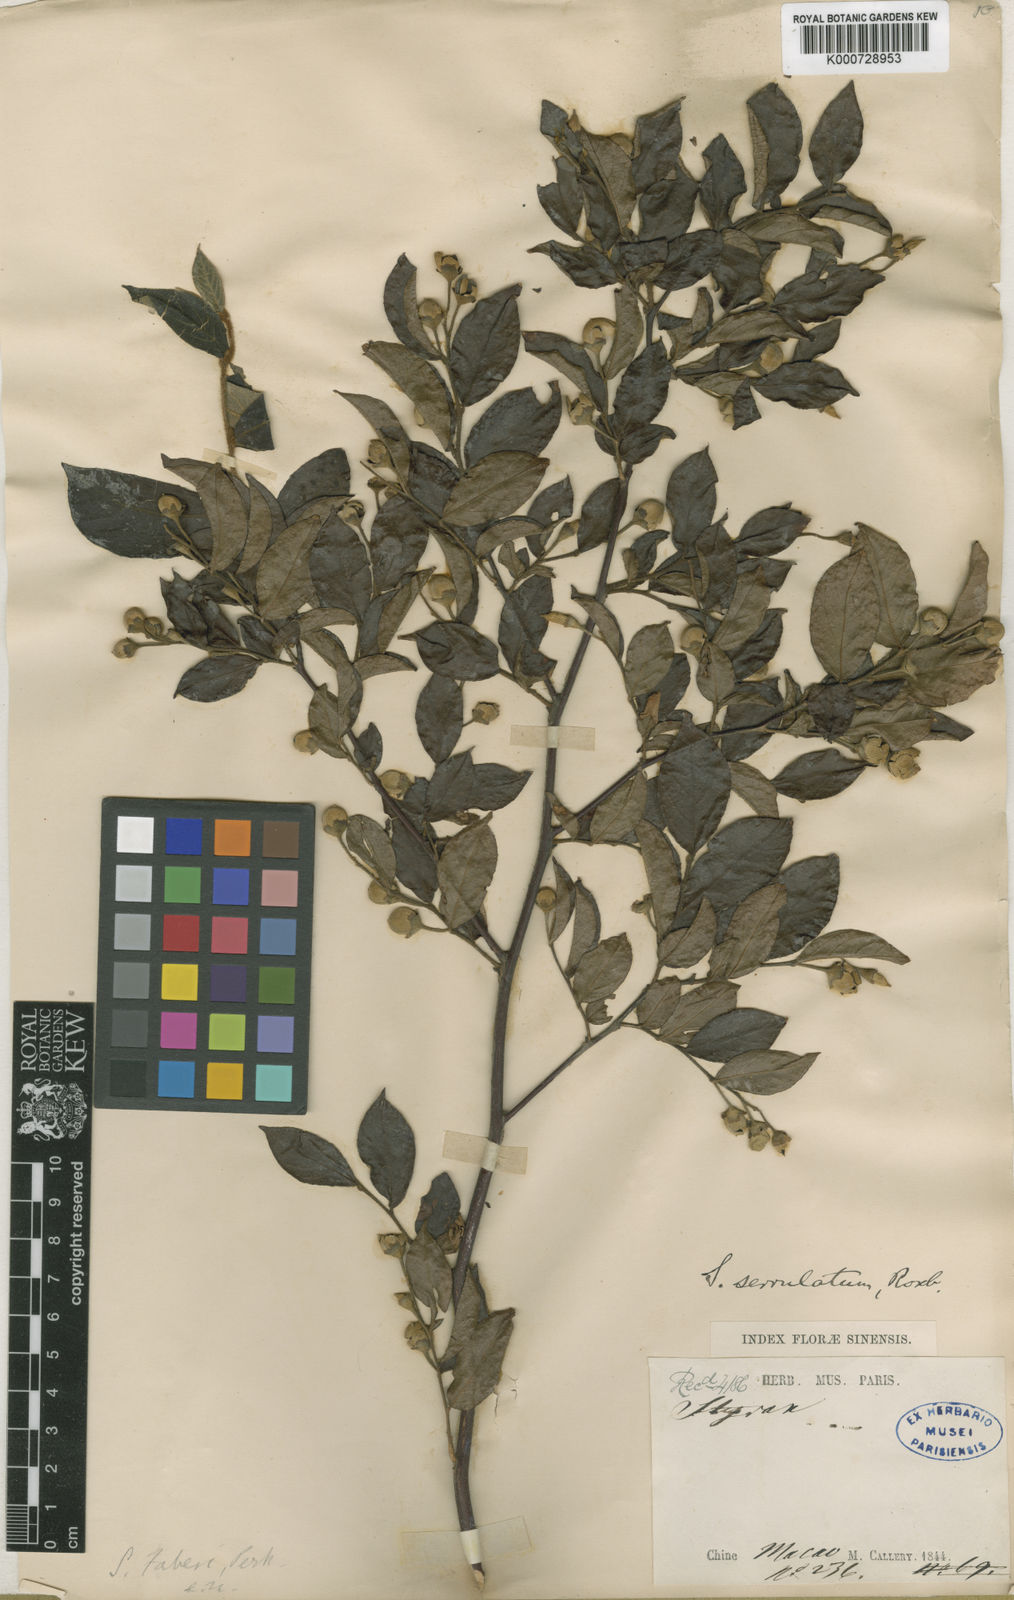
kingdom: Plantae
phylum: Tracheophyta
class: Magnoliopsida
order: Ericales
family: Styracaceae
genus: Styrax
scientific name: Styrax faberi
